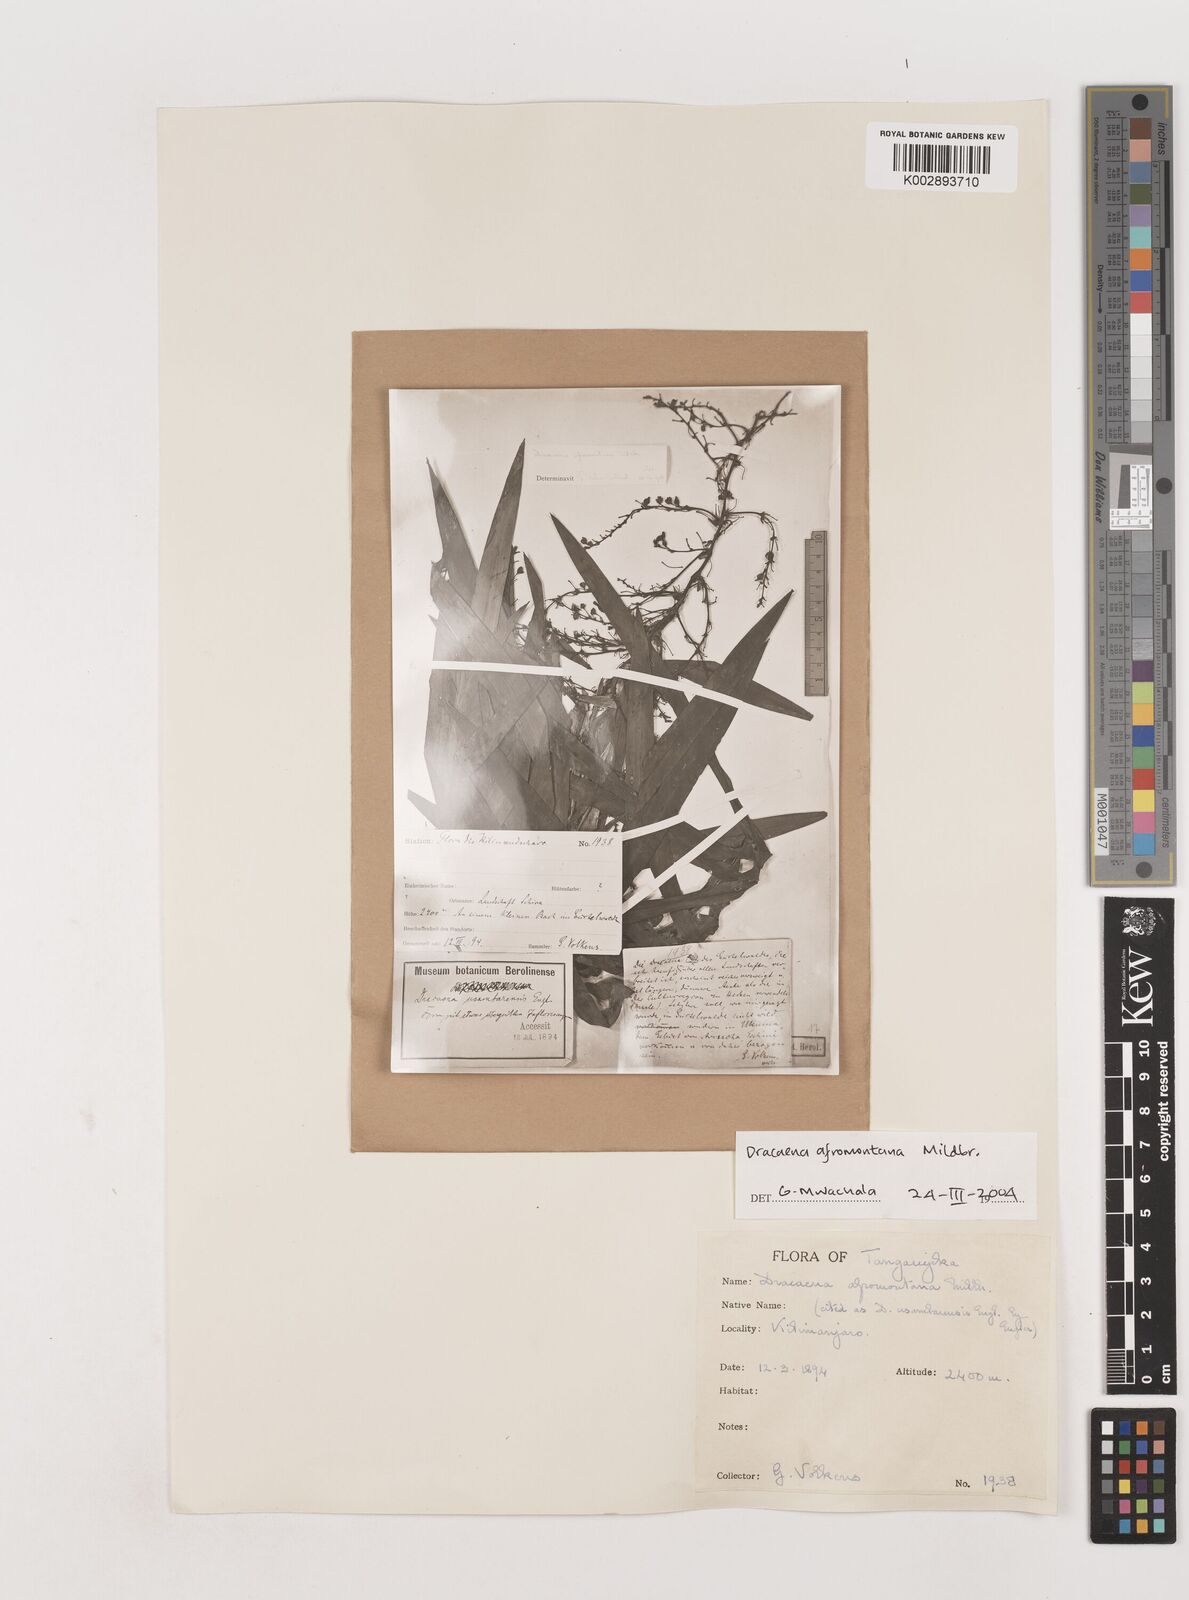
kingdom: Plantae
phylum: Tracheophyta
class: Liliopsida
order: Asparagales
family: Asparagaceae
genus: Dracaena
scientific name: Dracaena afromontana
